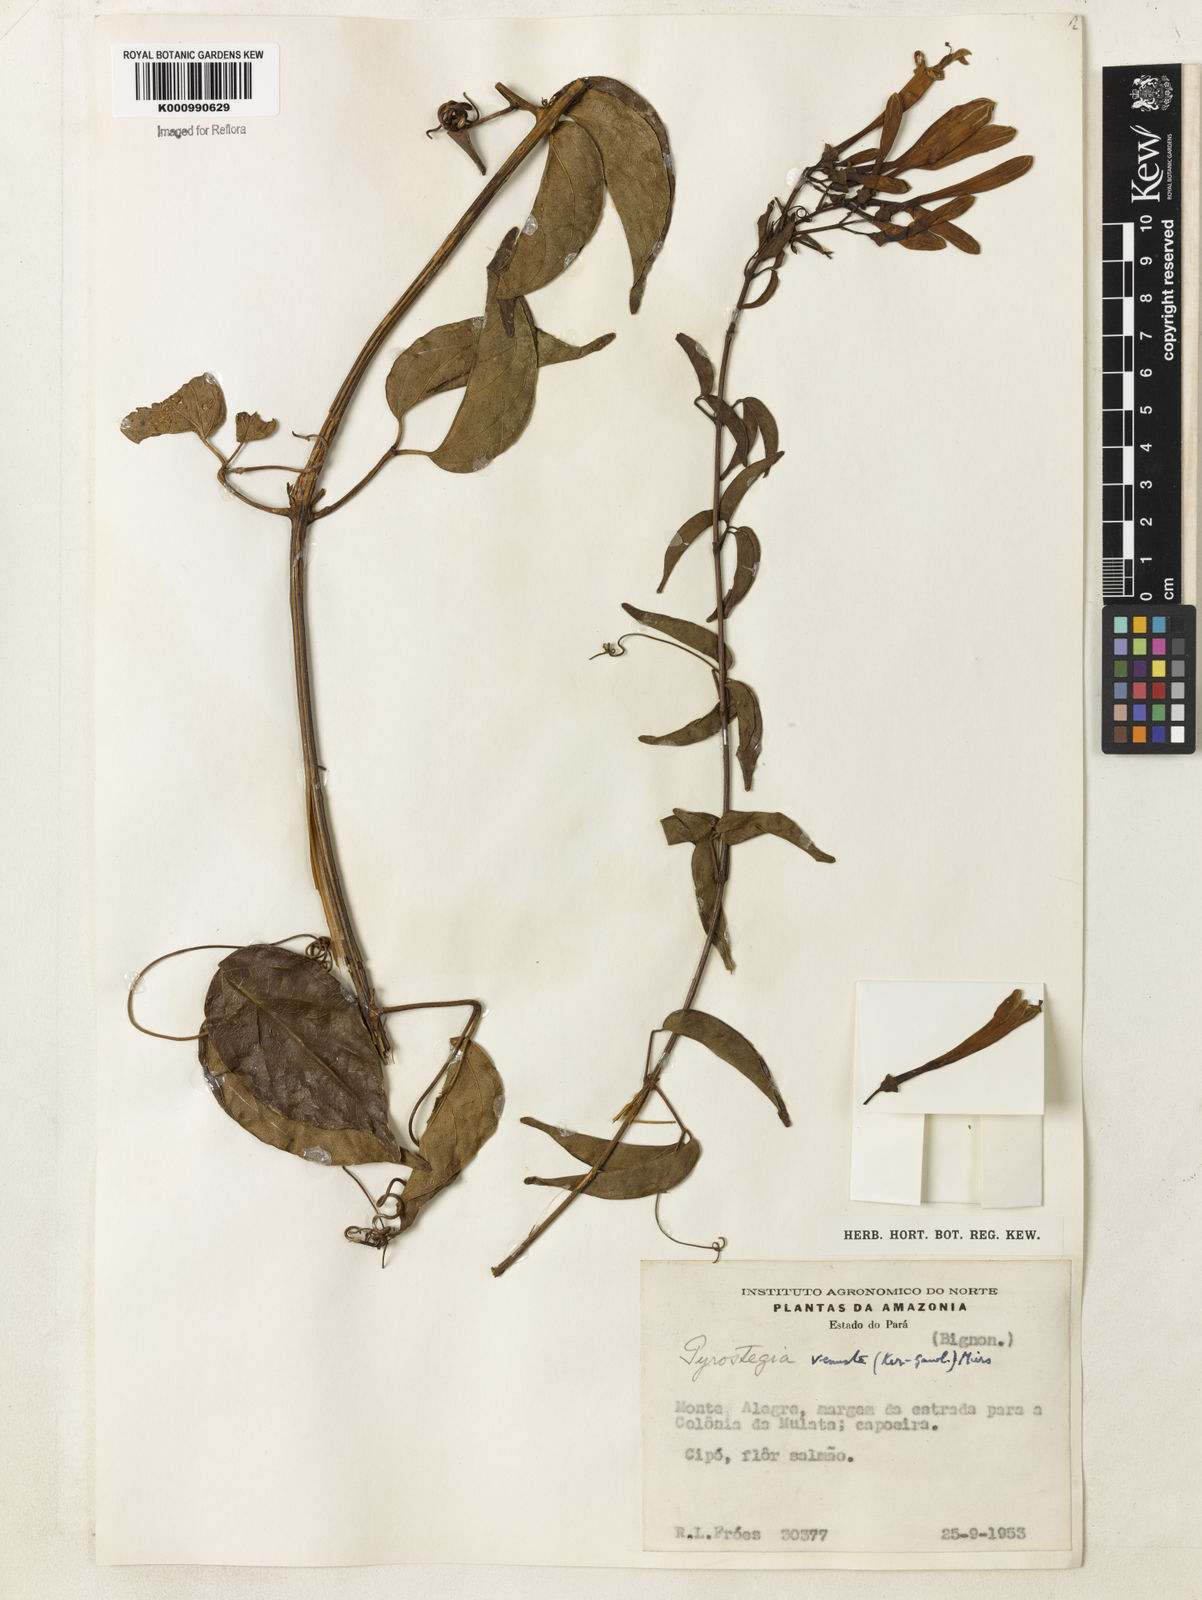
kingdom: Plantae
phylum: Tracheophyta
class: Magnoliopsida
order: Lamiales
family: Bignoniaceae
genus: Pyrostegia
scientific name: Pyrostegia venusta
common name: Flamevine
